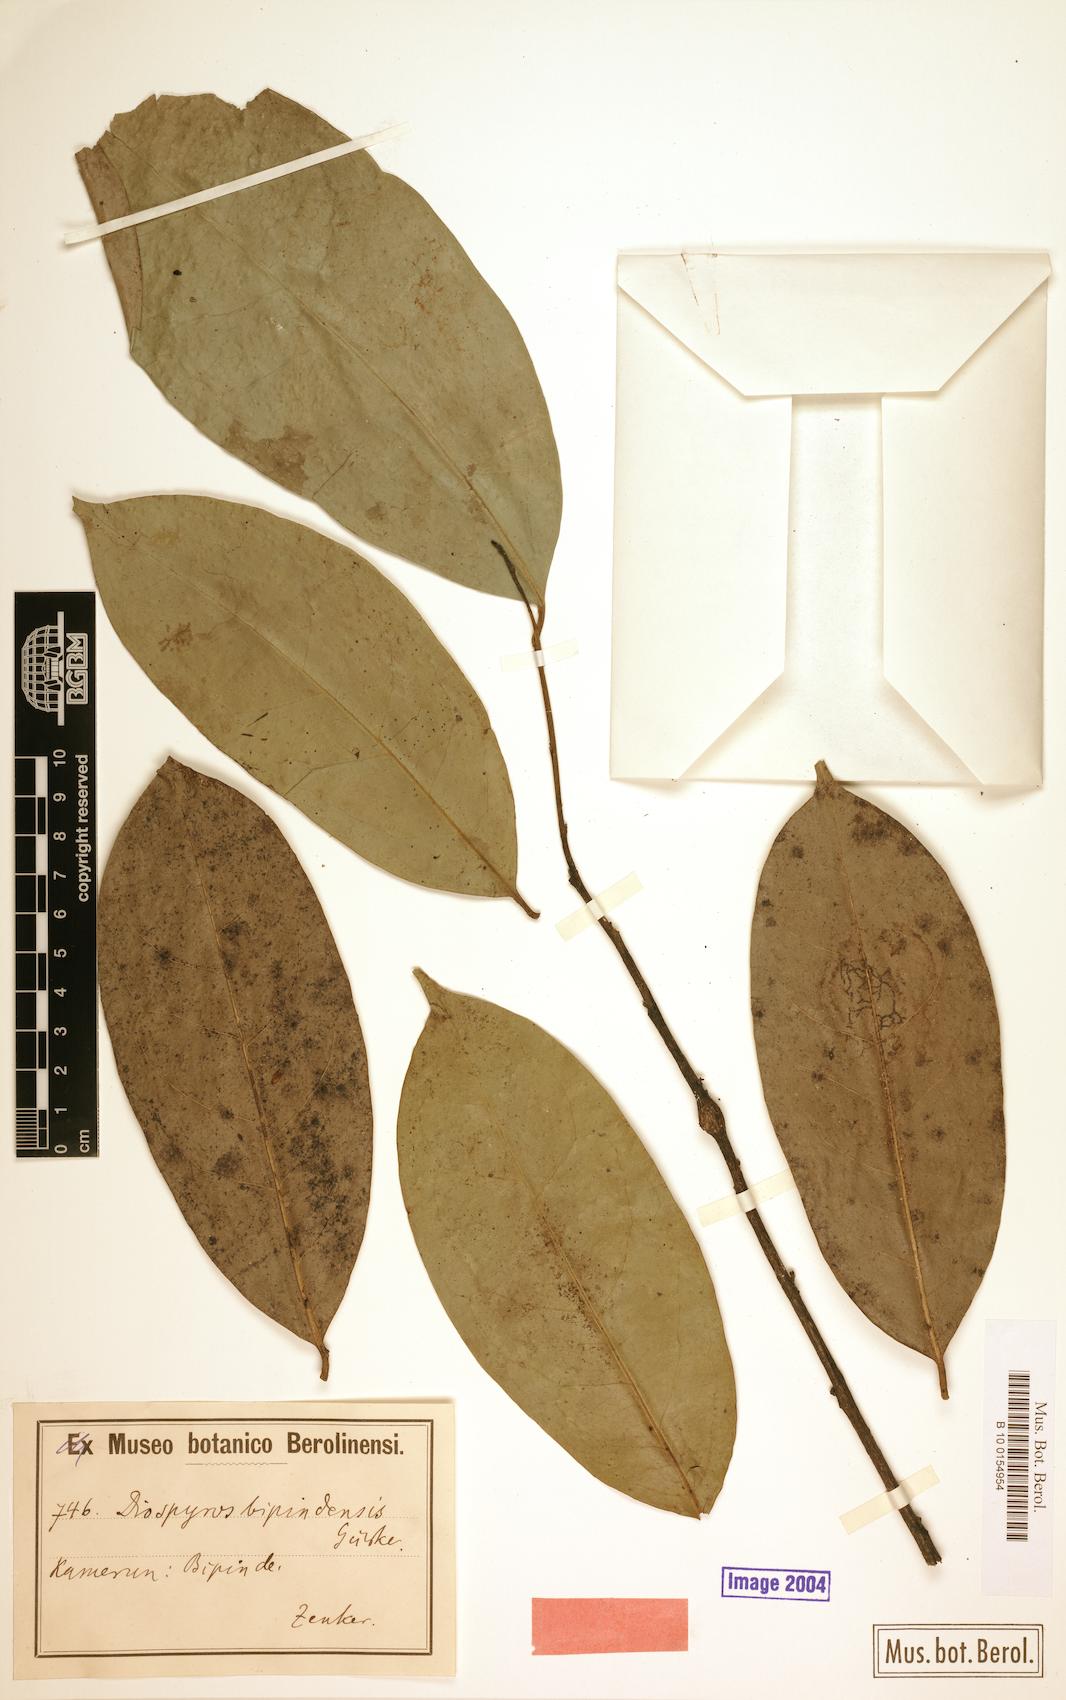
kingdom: Plantae
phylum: Tracheophyta
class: Magnoliopsida
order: Ericales
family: Ebenaceae
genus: Diospyros
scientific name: Diospyros bipindensis
